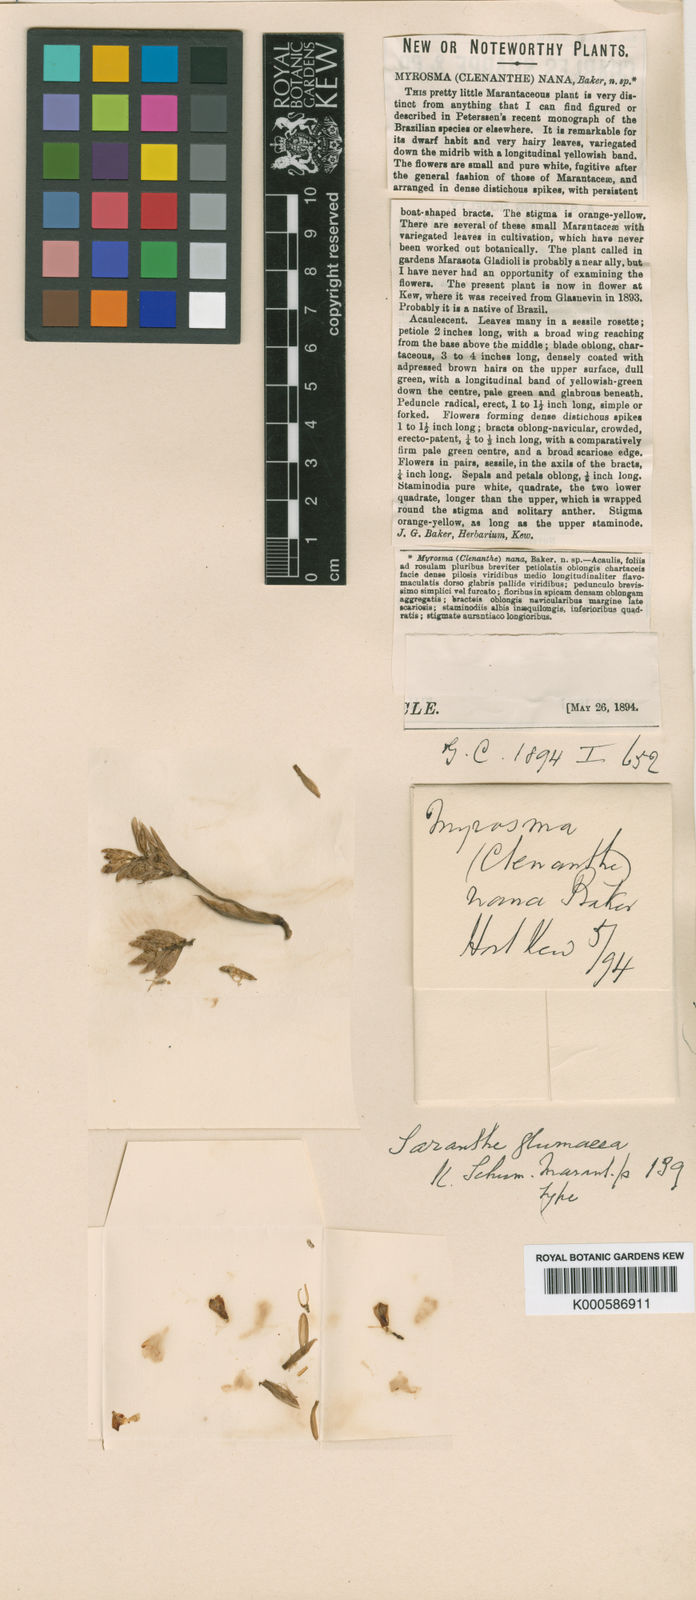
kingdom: Plantae
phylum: Tracheophyta
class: Liliopsida
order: Zingiberales
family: Marantaceae
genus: Saranthe
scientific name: Saranthe glumacea
